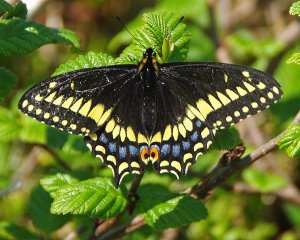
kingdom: Animalia
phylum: Arthropoda
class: Insecta
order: Lepidoptera
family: Papilionidae
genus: Papilio
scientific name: Papilio brevicauda
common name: Short-tailed Swallowtail
